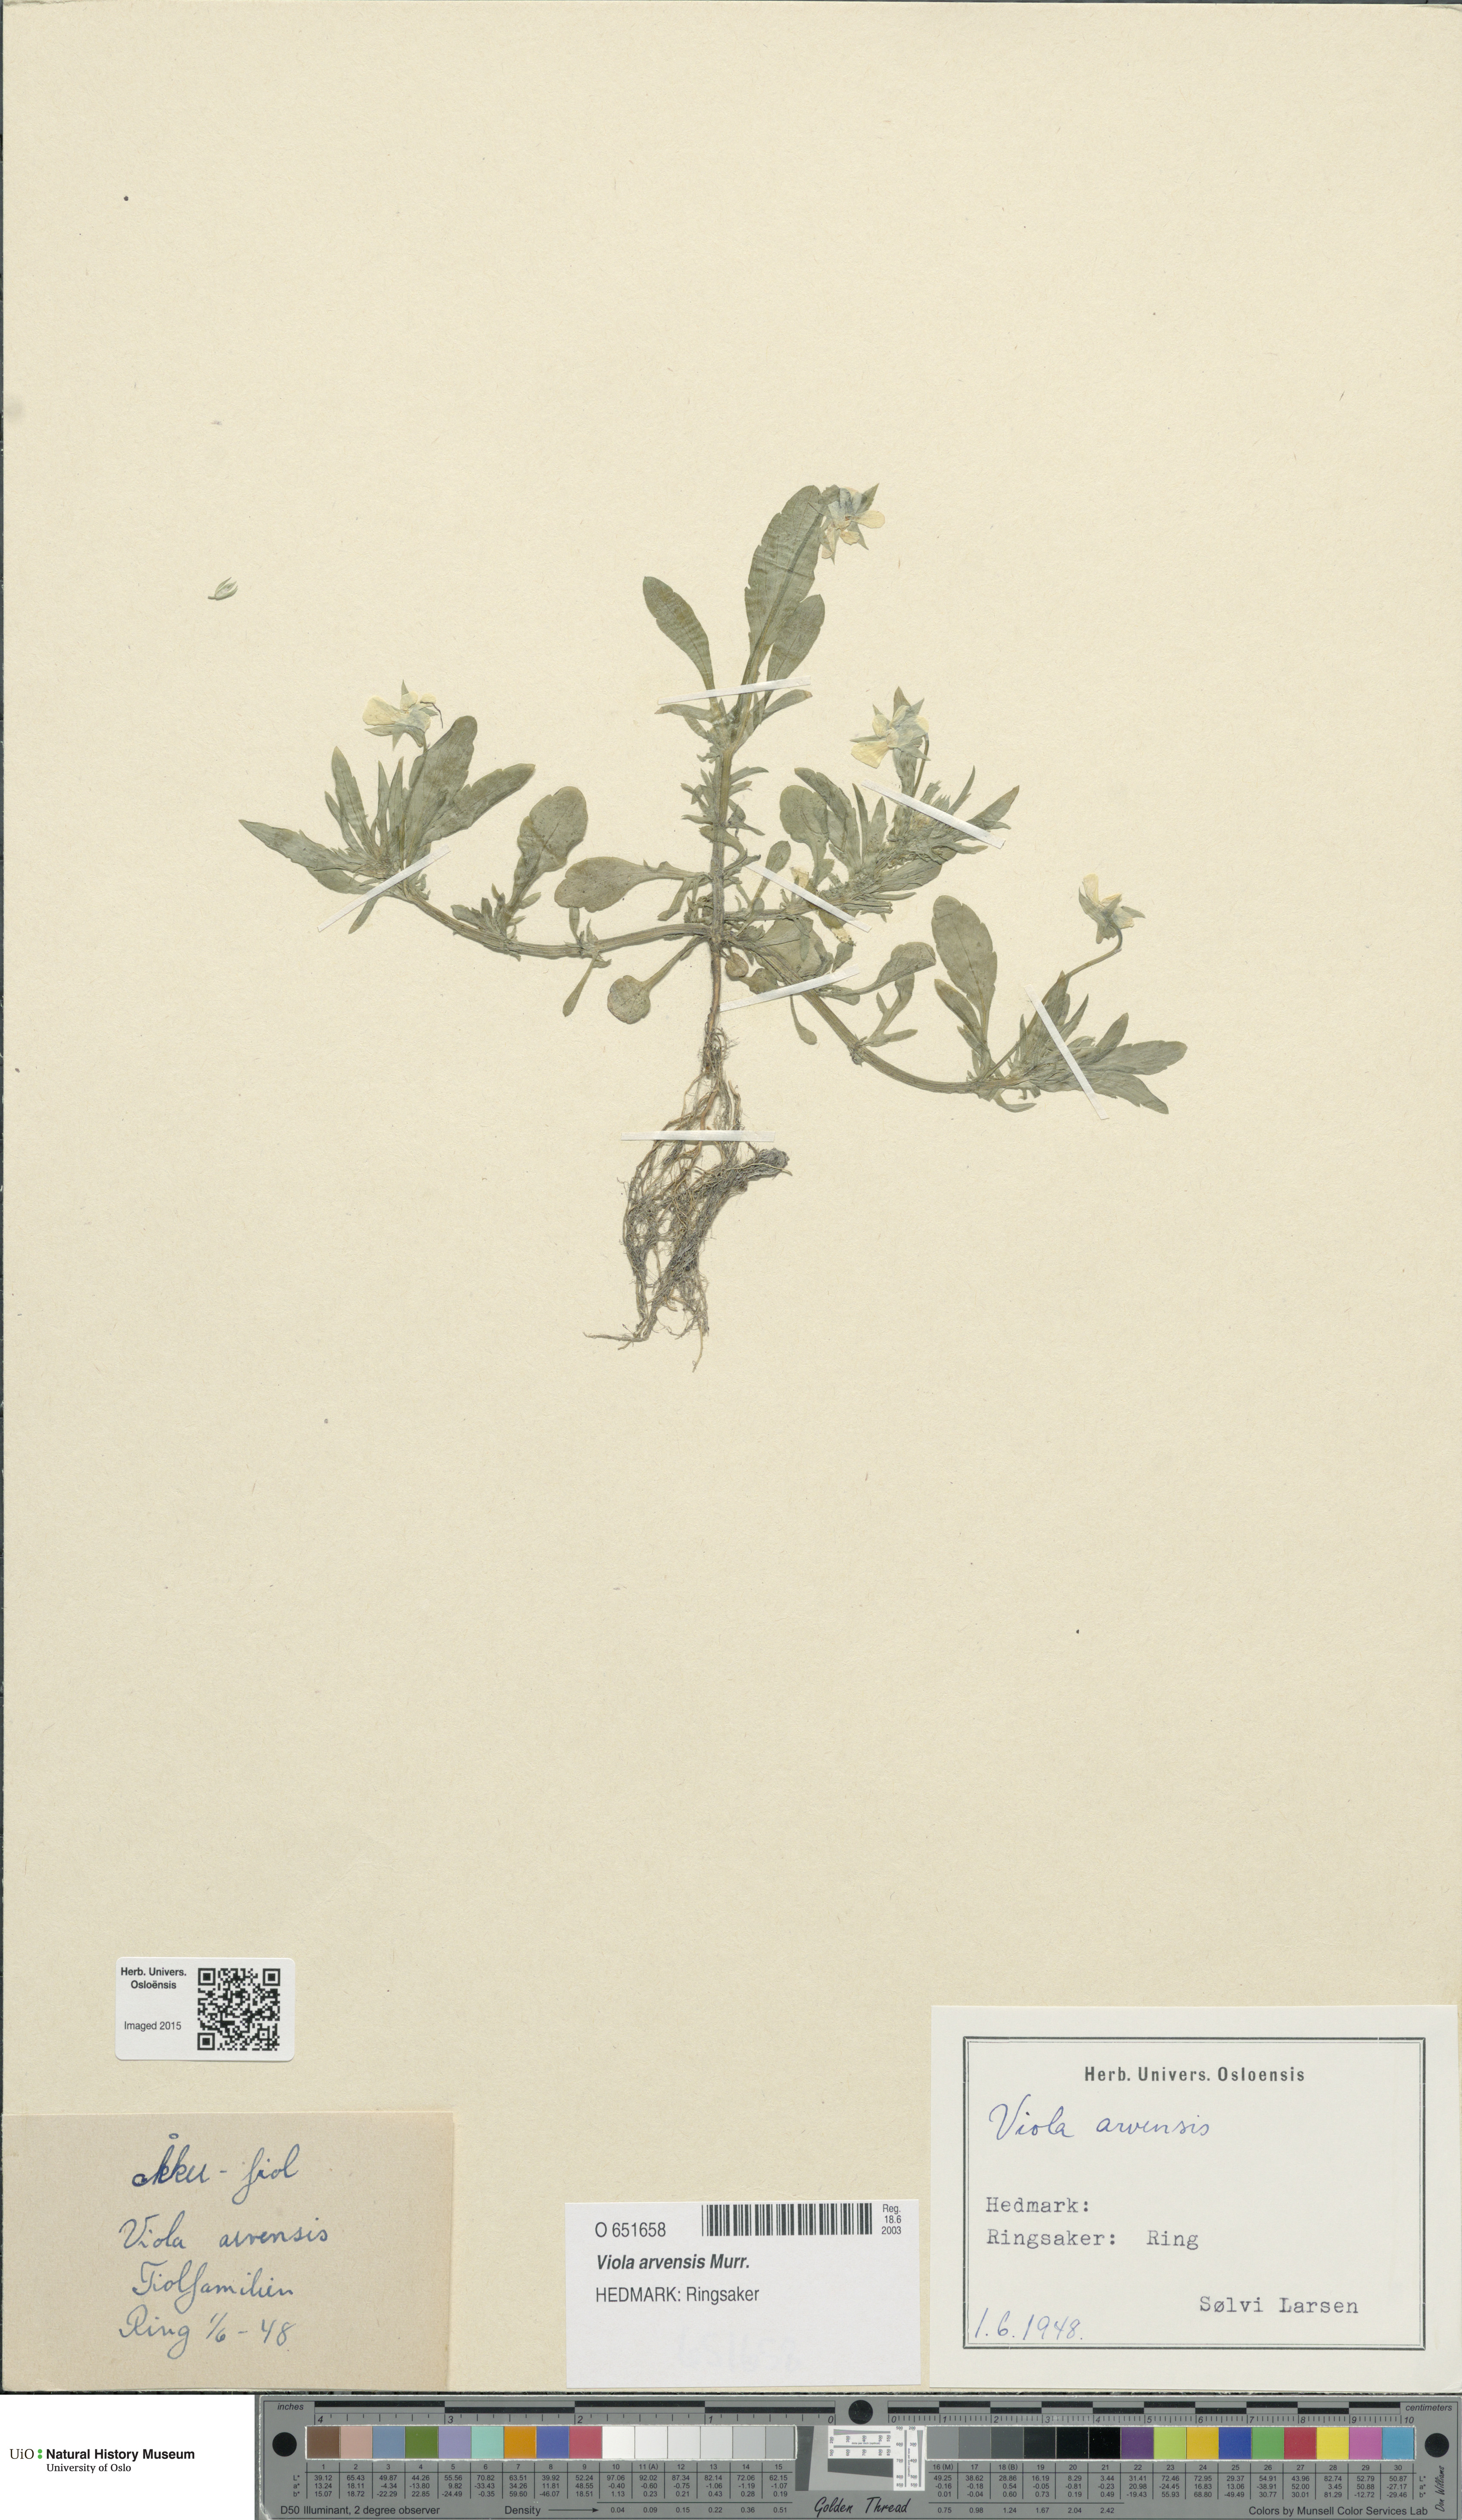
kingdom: Plantae
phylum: Tracheophyta
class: Magnoliopsida
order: Malpighiales
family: Violaceae
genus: Viola
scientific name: Viola arvensis
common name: Field pansy
